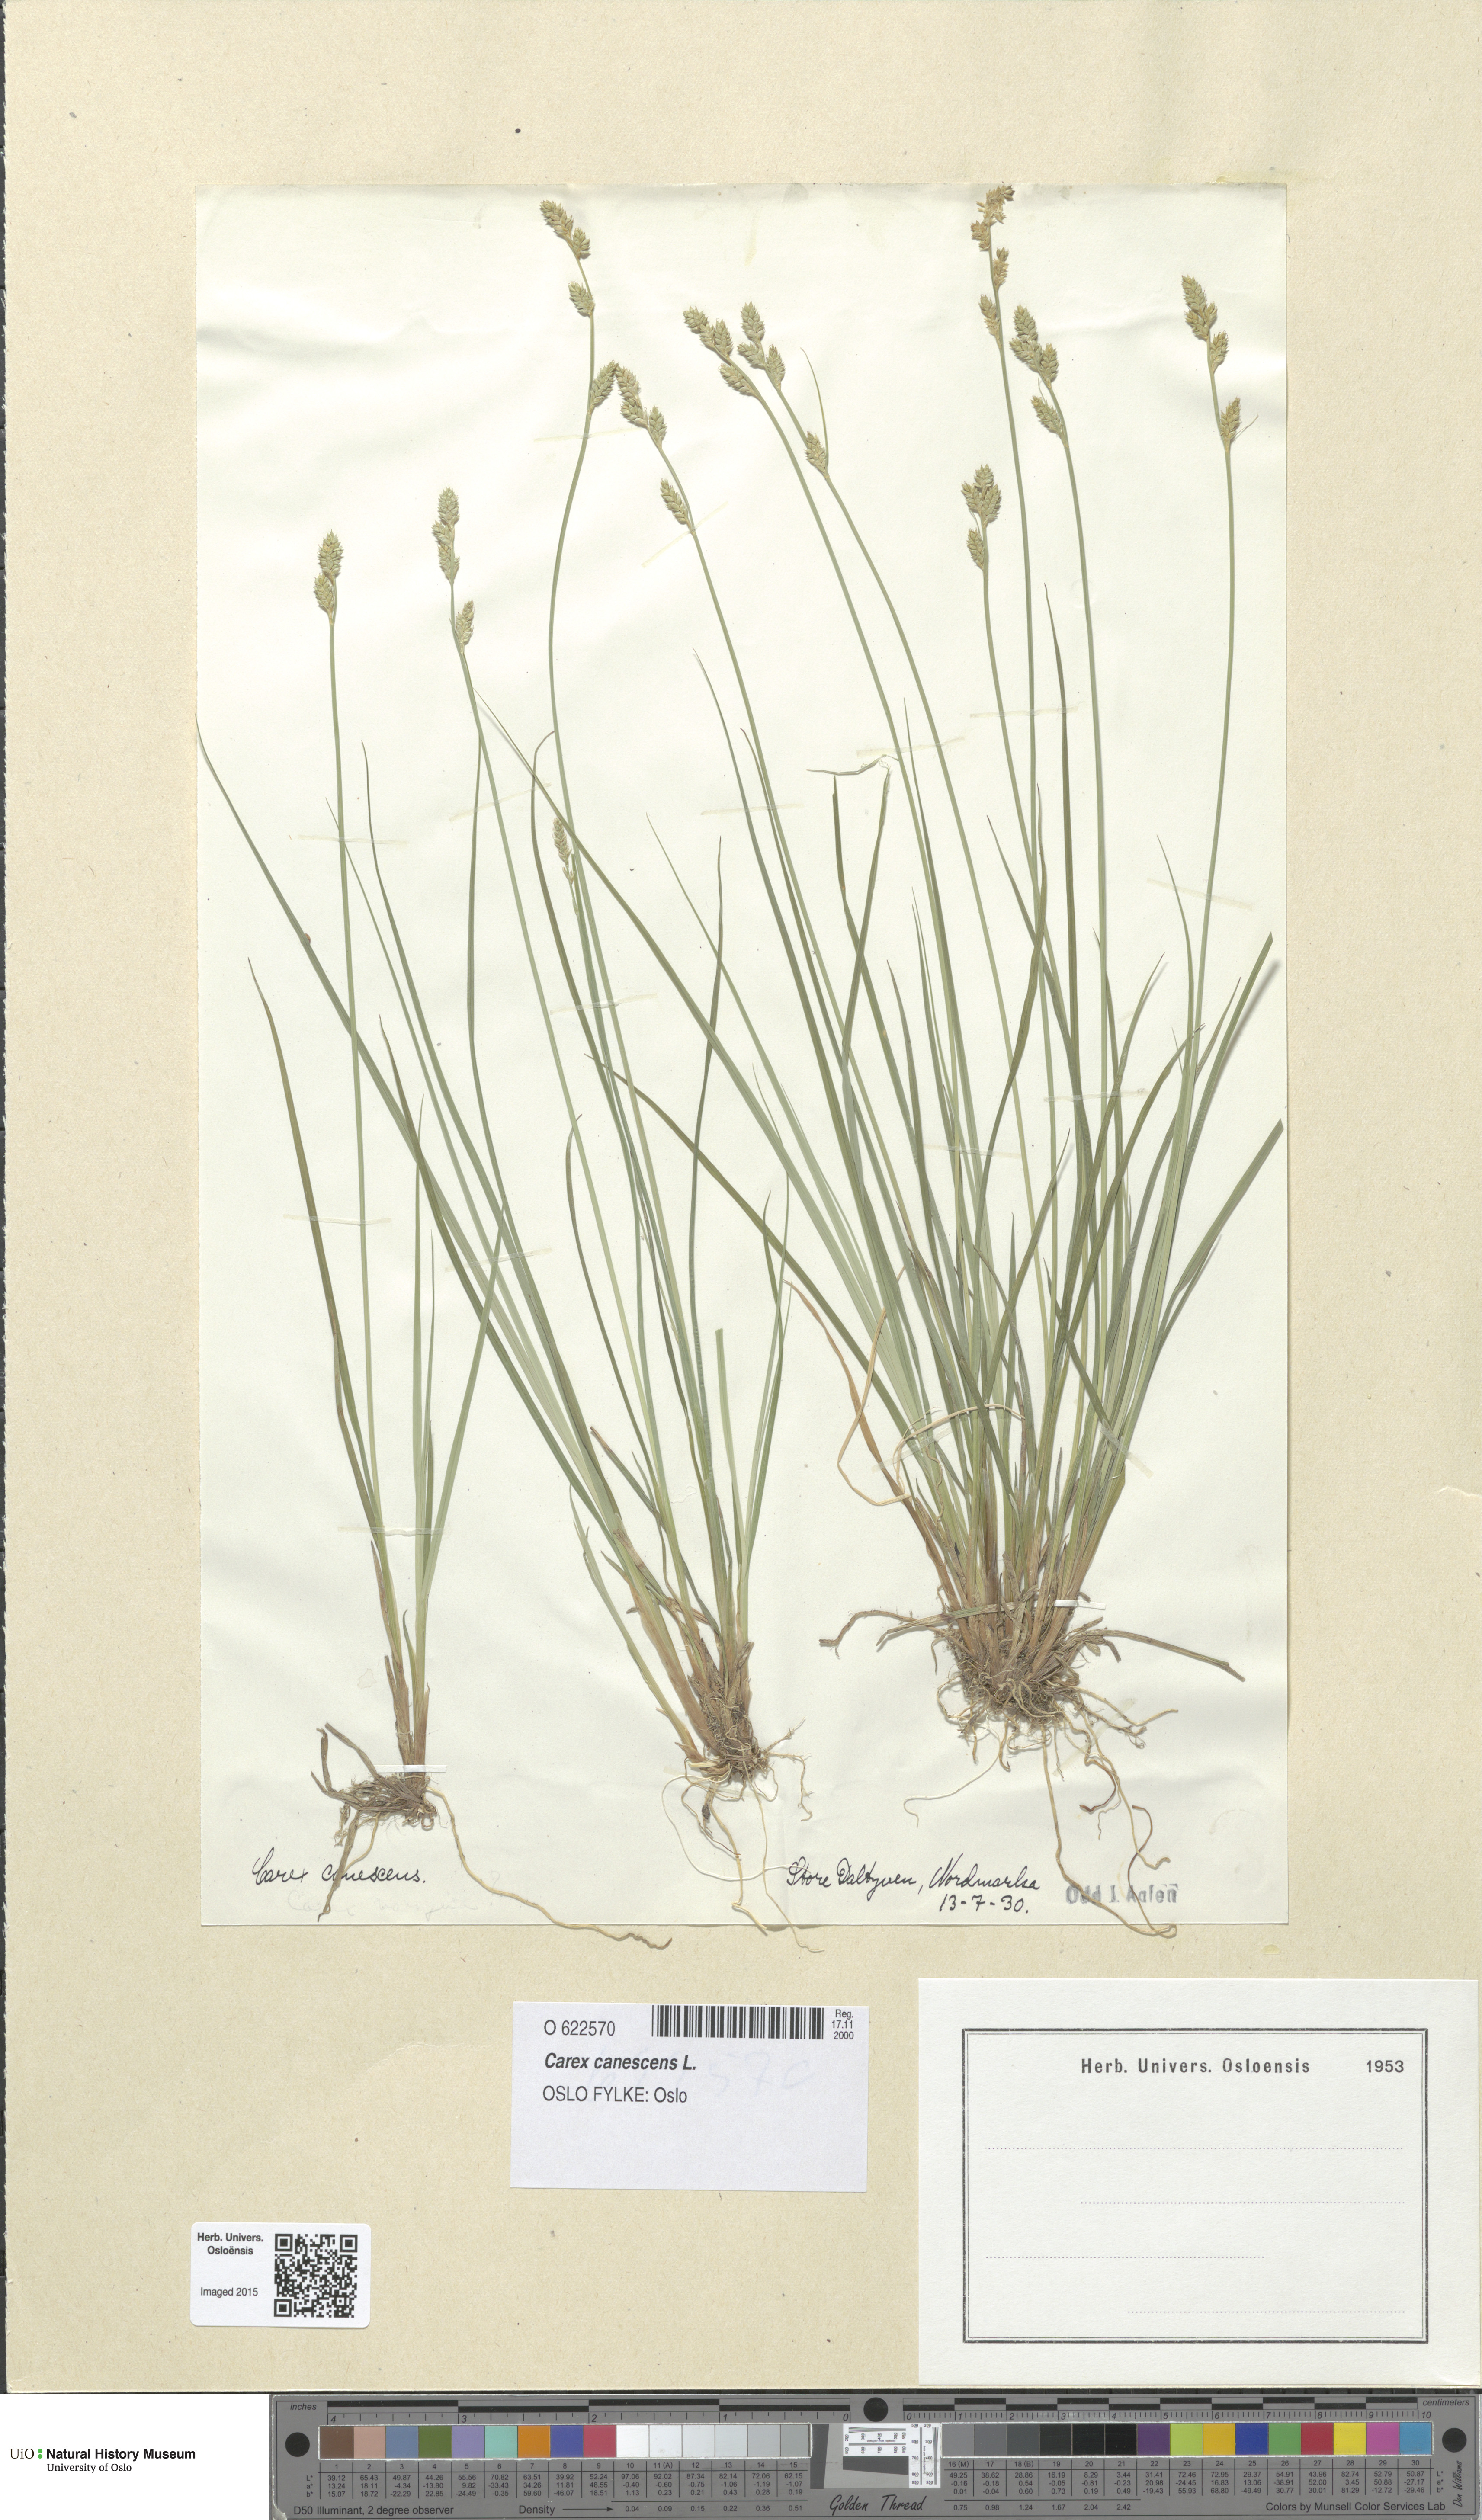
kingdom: Plantae
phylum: Tracheophyta
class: Liliopsida
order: Poales
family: Cyperaceae
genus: Carex
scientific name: Carex canescens
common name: White sedge
